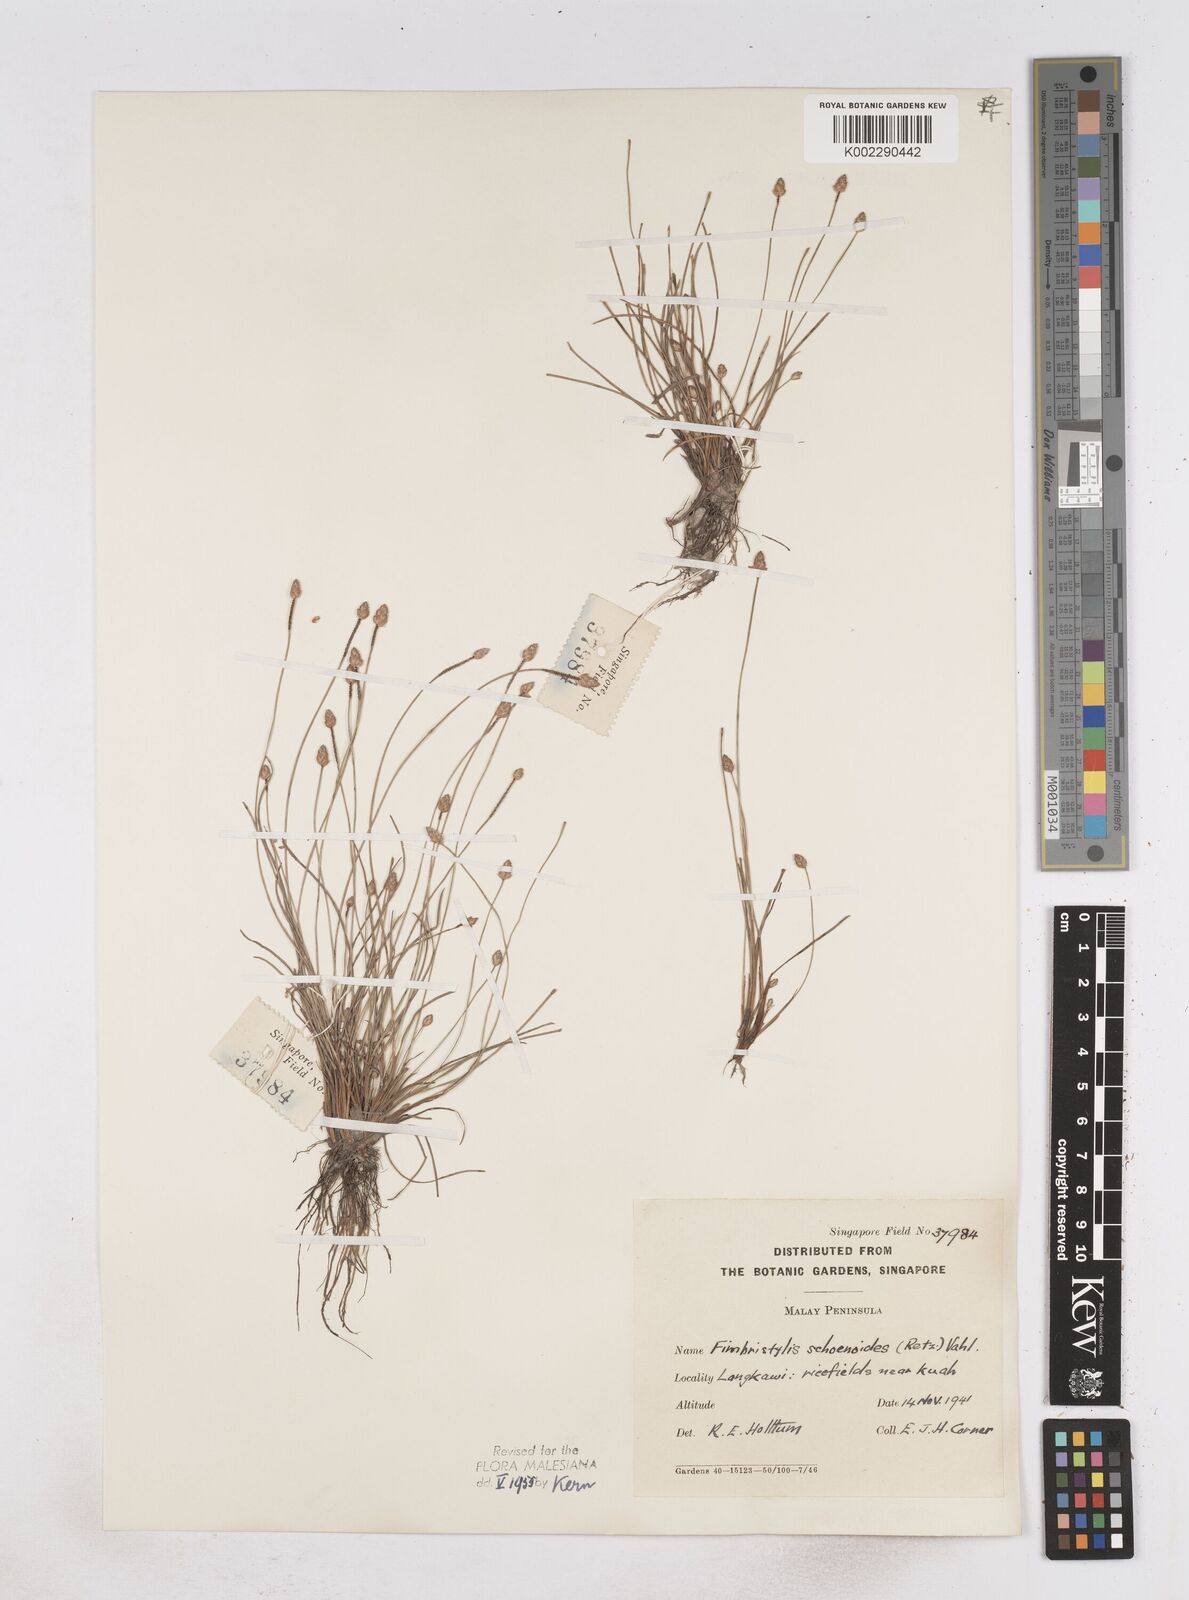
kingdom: Plantae
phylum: Tracheophyta
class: Liliopsida
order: Poales
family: Cyperaceae
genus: Fimbristylis
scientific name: Fimbristylis schoenoides
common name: Ditch fimbry
